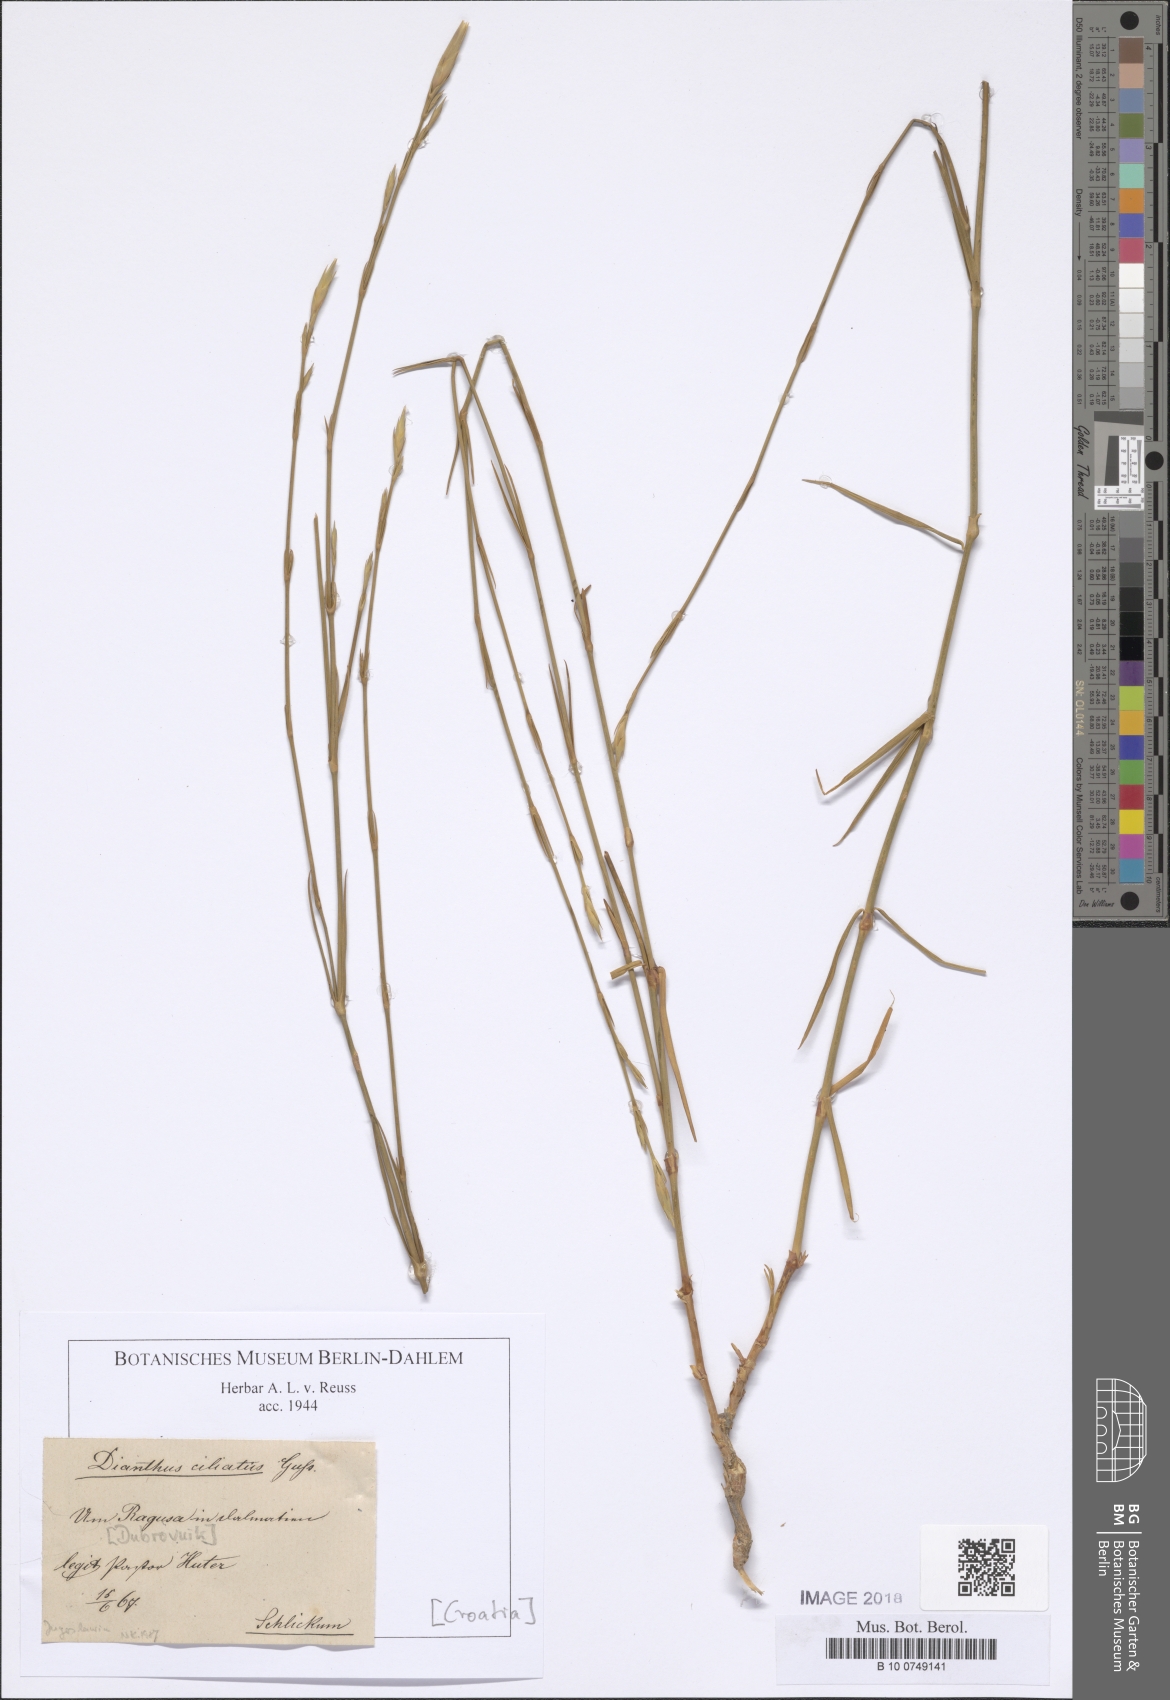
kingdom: Plantae
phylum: Tracheophyta
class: Magnoliopsida
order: Caryophyllales
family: Caryophyllaceae
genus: Dianthus
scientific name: Dianthus ciliatus
